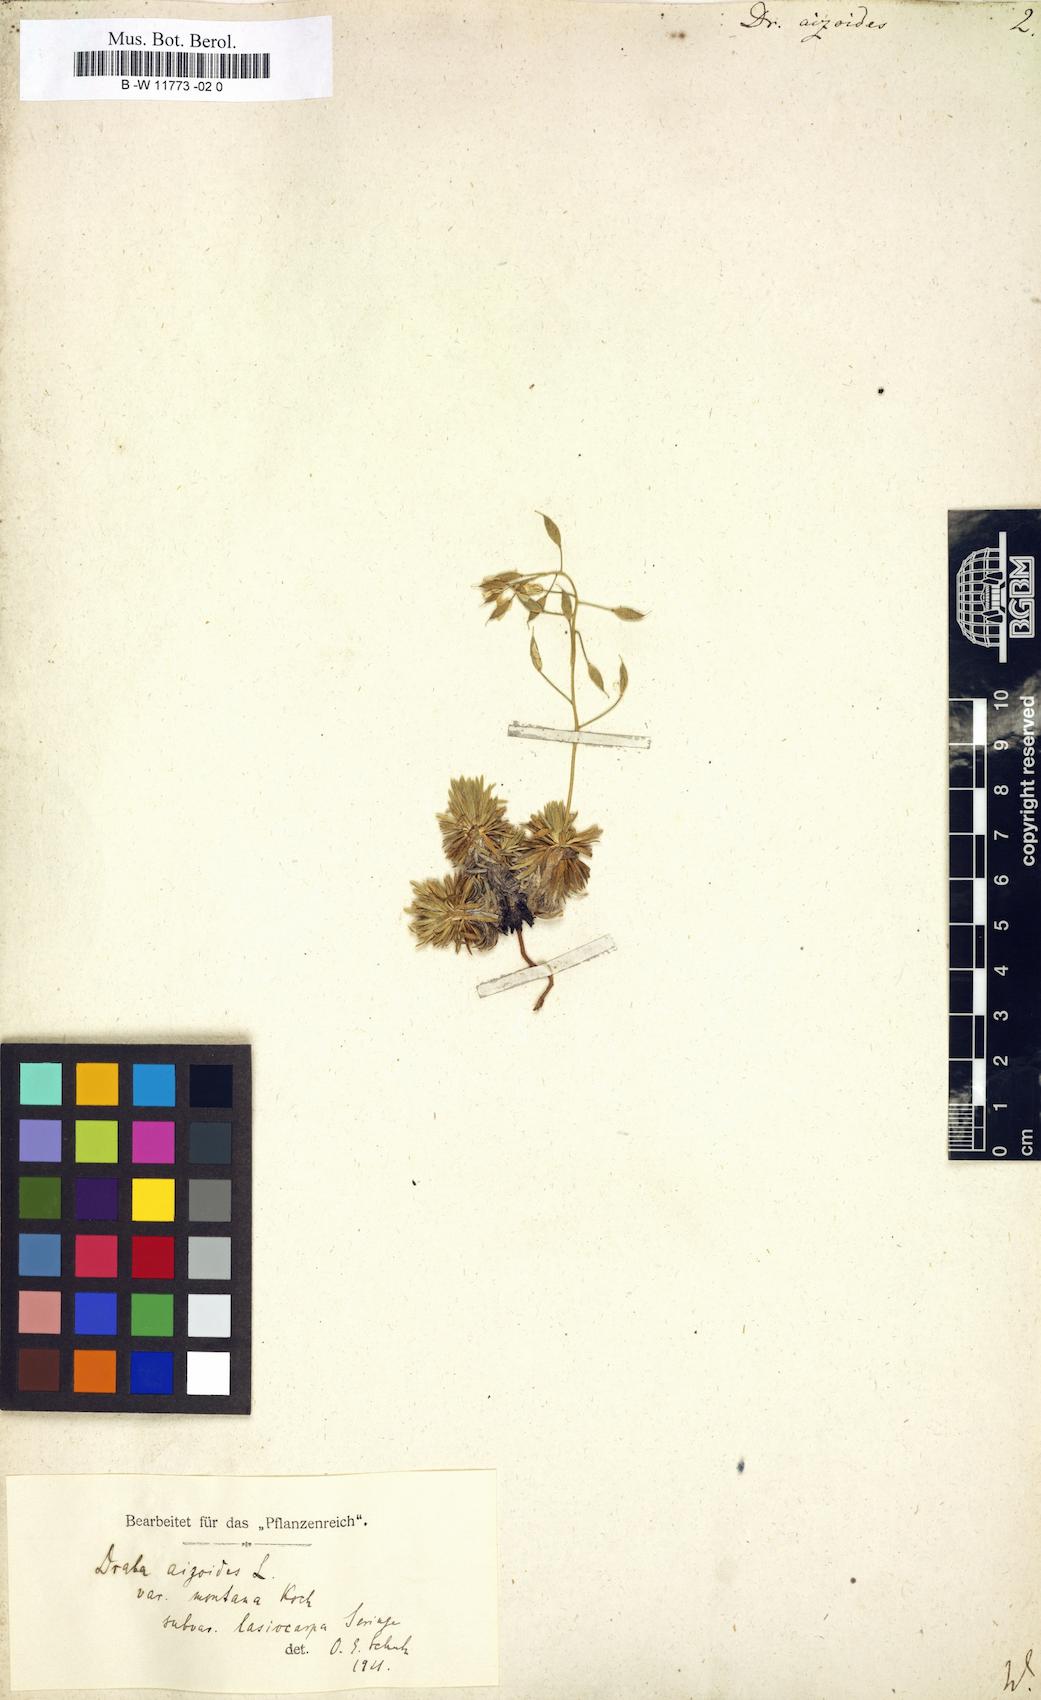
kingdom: Plantae
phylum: Tracheophyta
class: Magnoliopsida
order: Brassicales
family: Brassicaceae
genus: Draba
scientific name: Draba aizoides
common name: Yellow whitlowgrass
